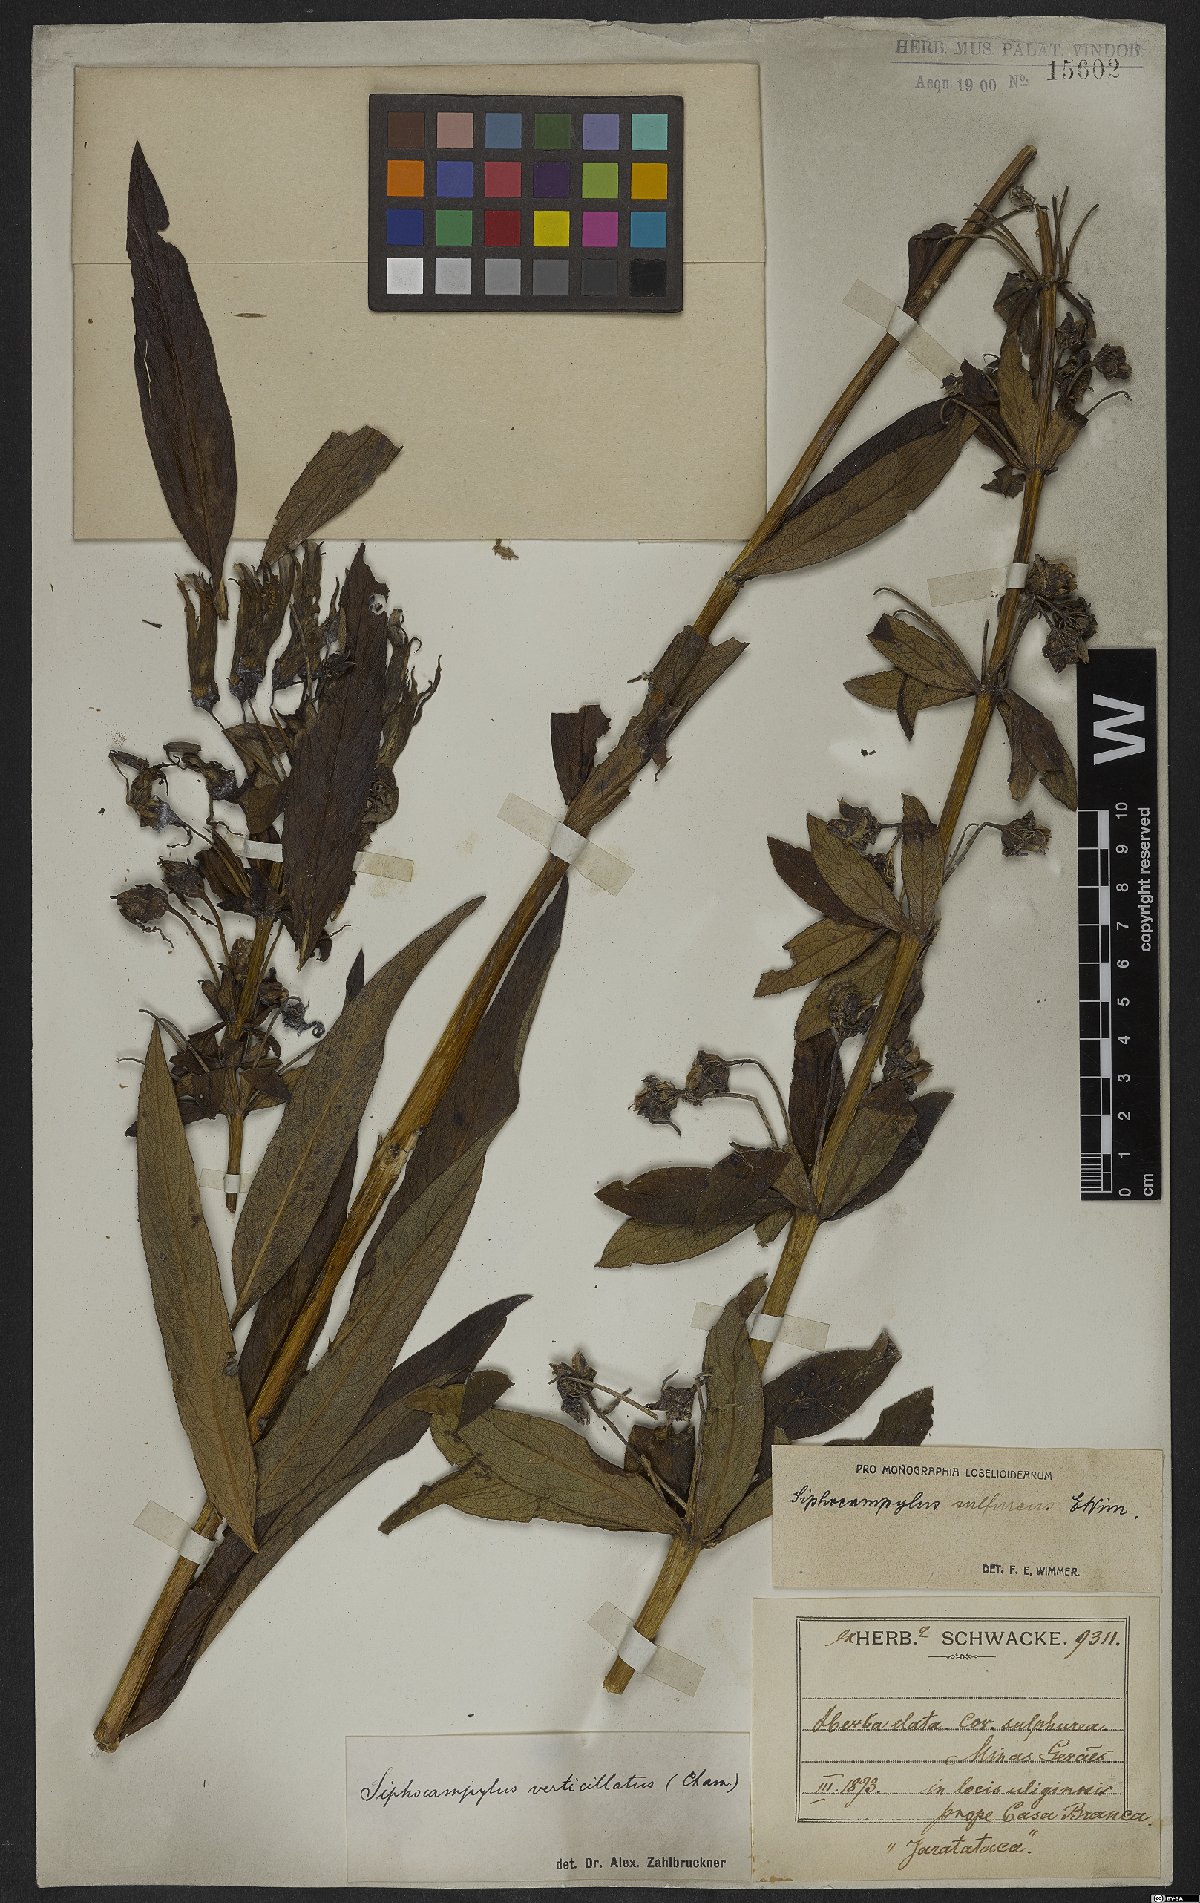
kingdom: Plantae
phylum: Tracheophyta
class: Magnoliopsida
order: Asterales
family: Campanulaceae
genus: Siphocampylus
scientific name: Siphocampylus sulfureus
